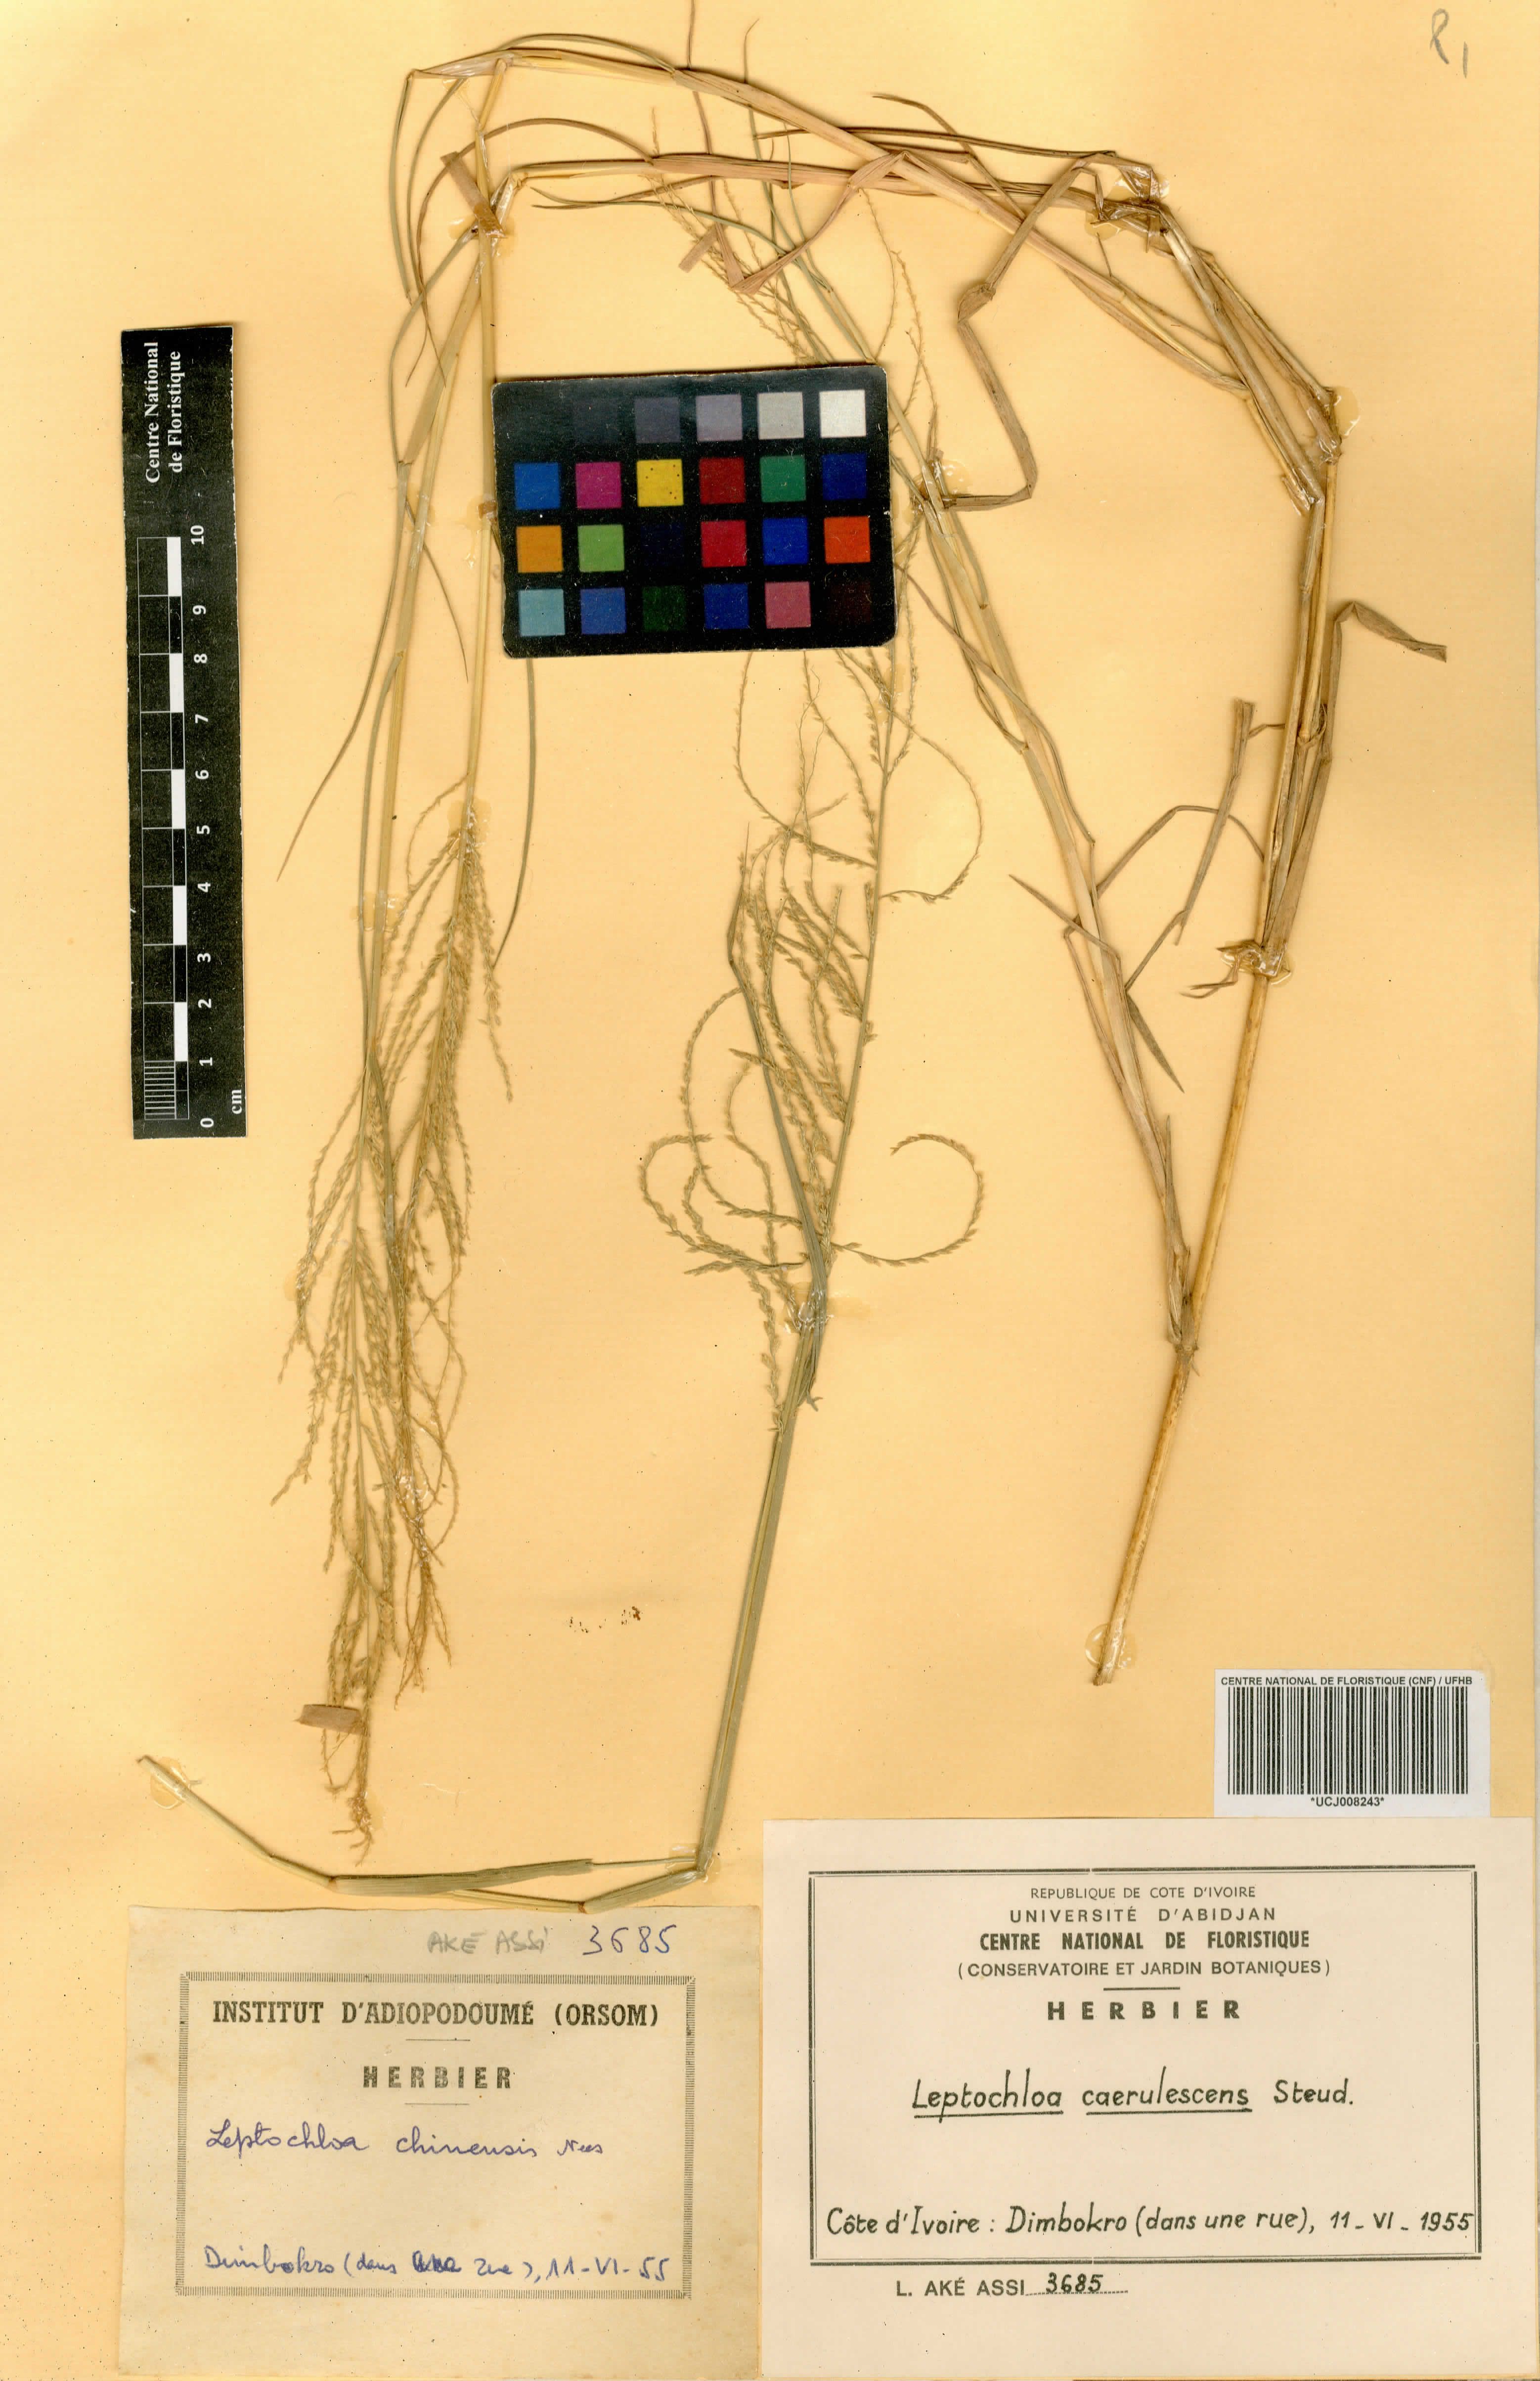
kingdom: Plantae
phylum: Tracheophyta
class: Liliopsida
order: Poales
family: Poaceae
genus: Leptochloa
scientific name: Leptochloa caerulescens
